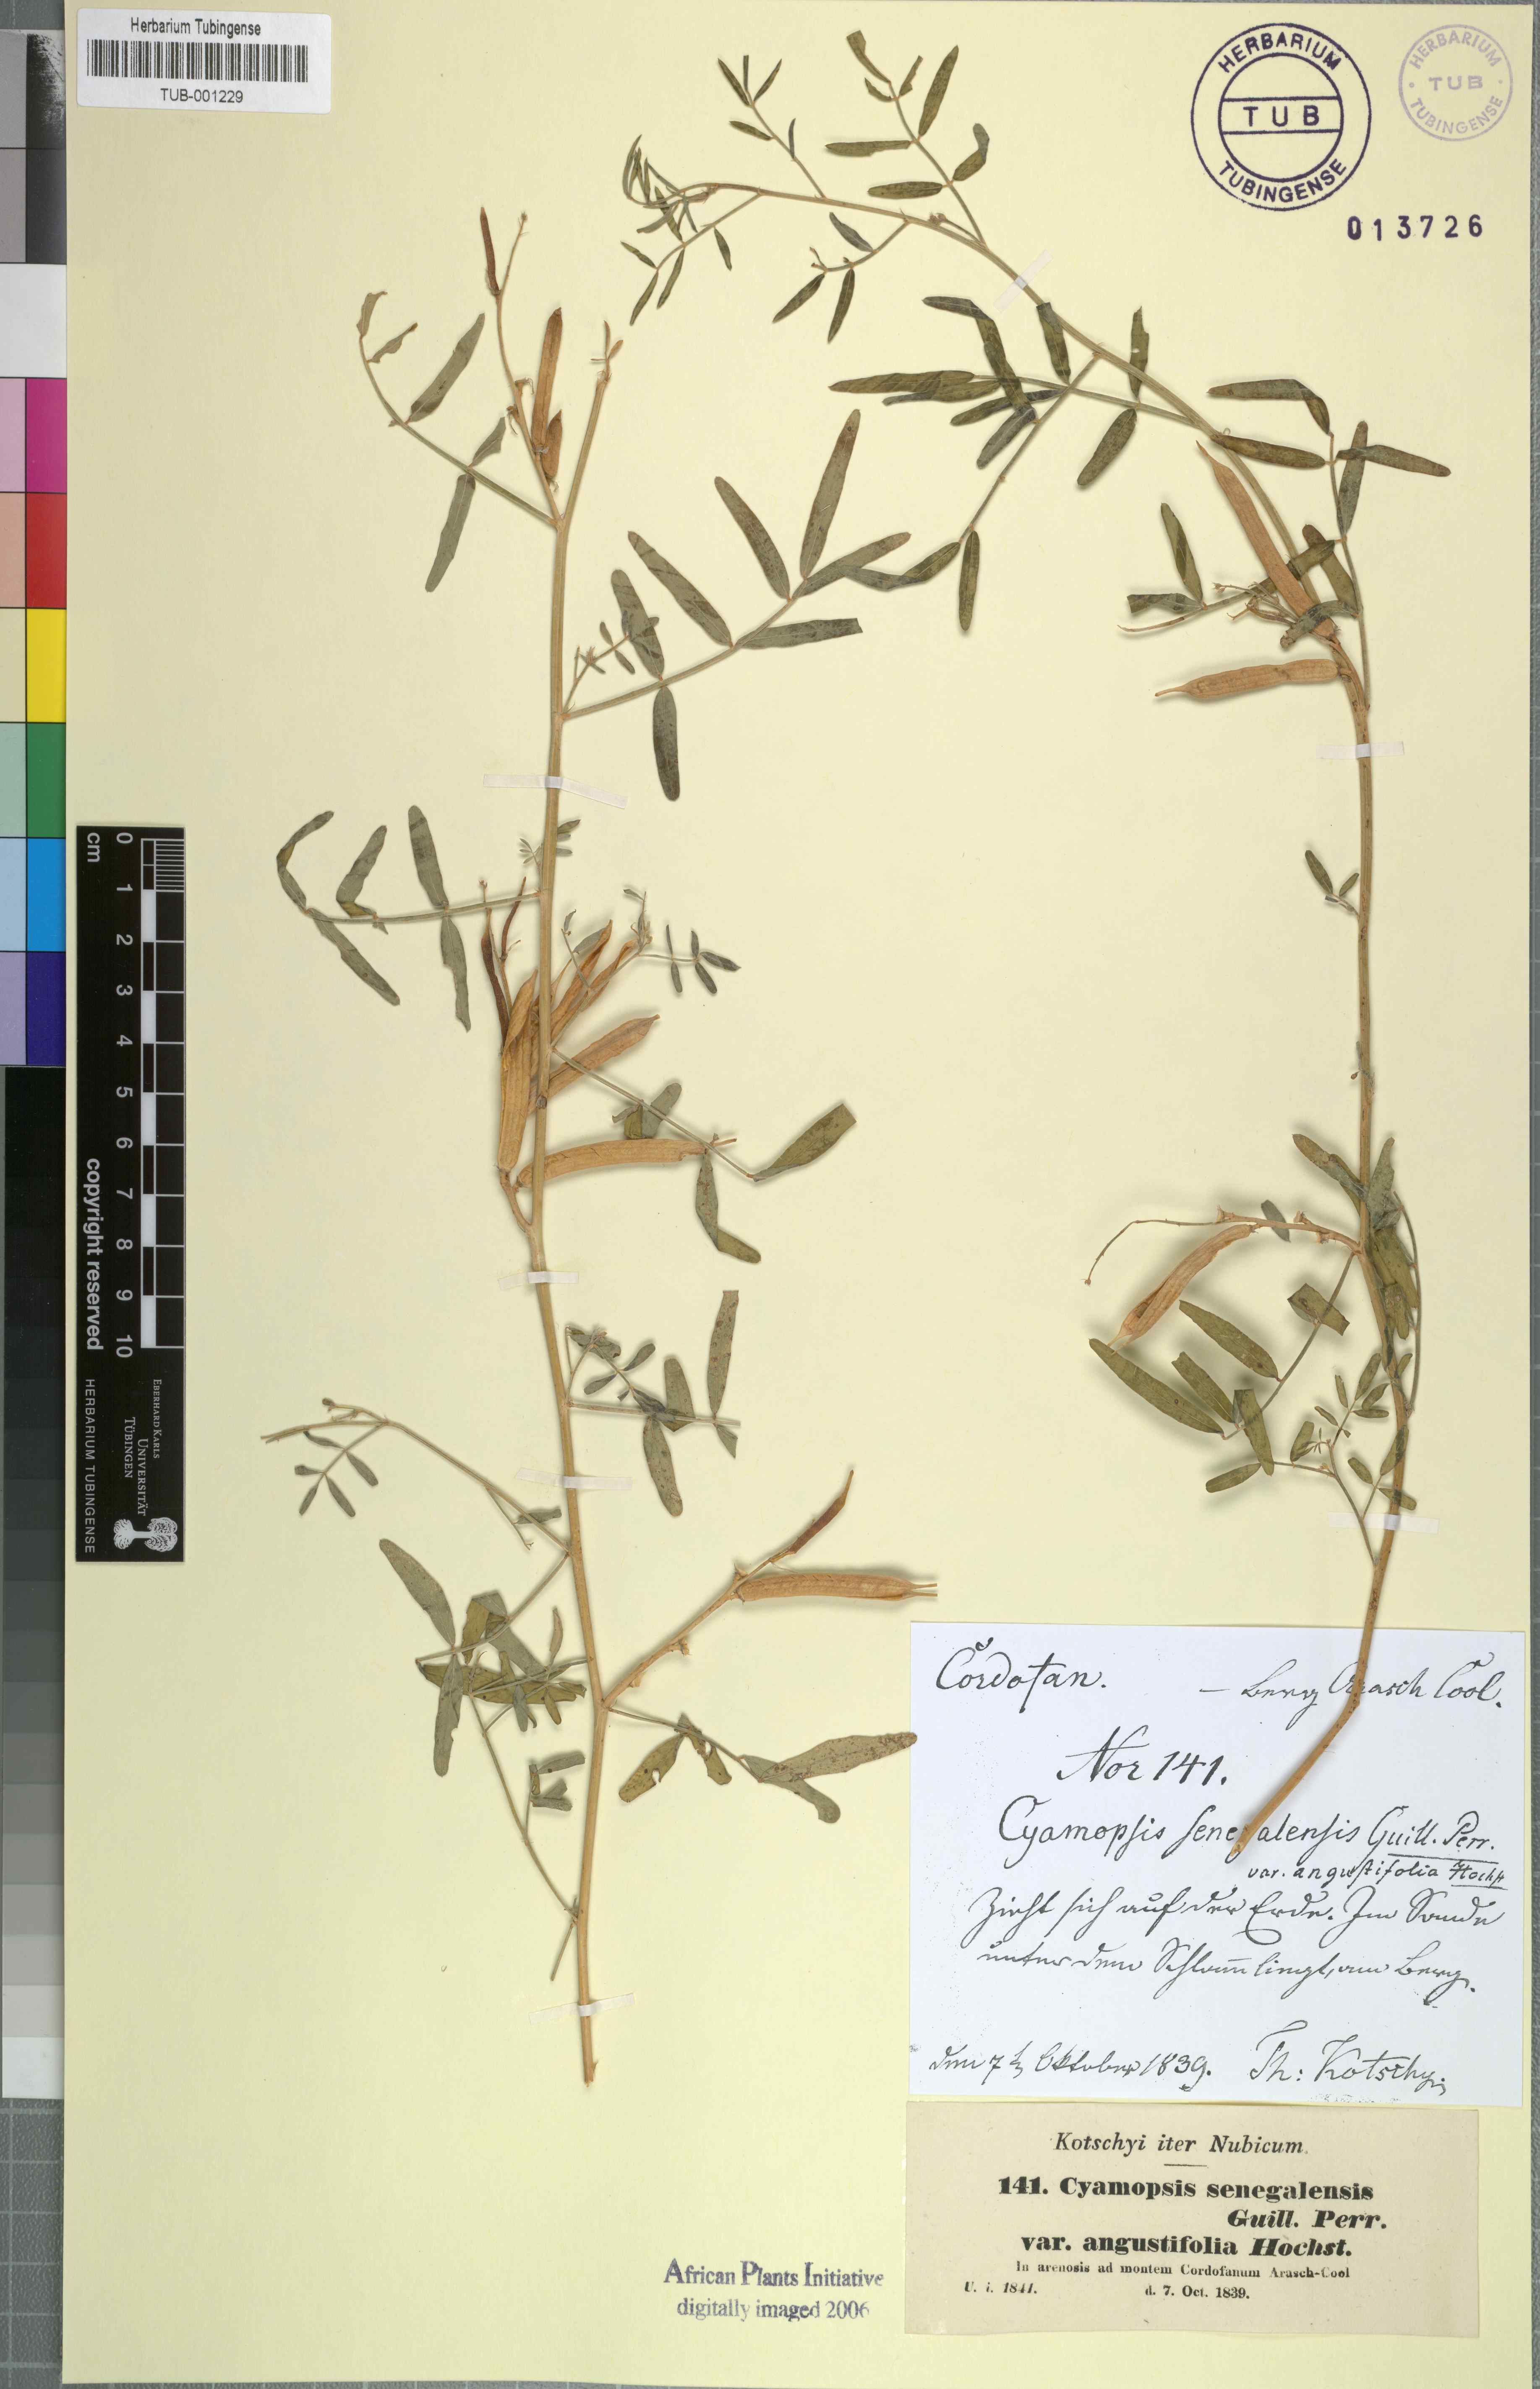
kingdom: Plantae
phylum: Tracheophyta
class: Magnoliopsida
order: Fabales
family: Fabaceae
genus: Cyamopsis
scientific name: Cyamopsis senegalensis
